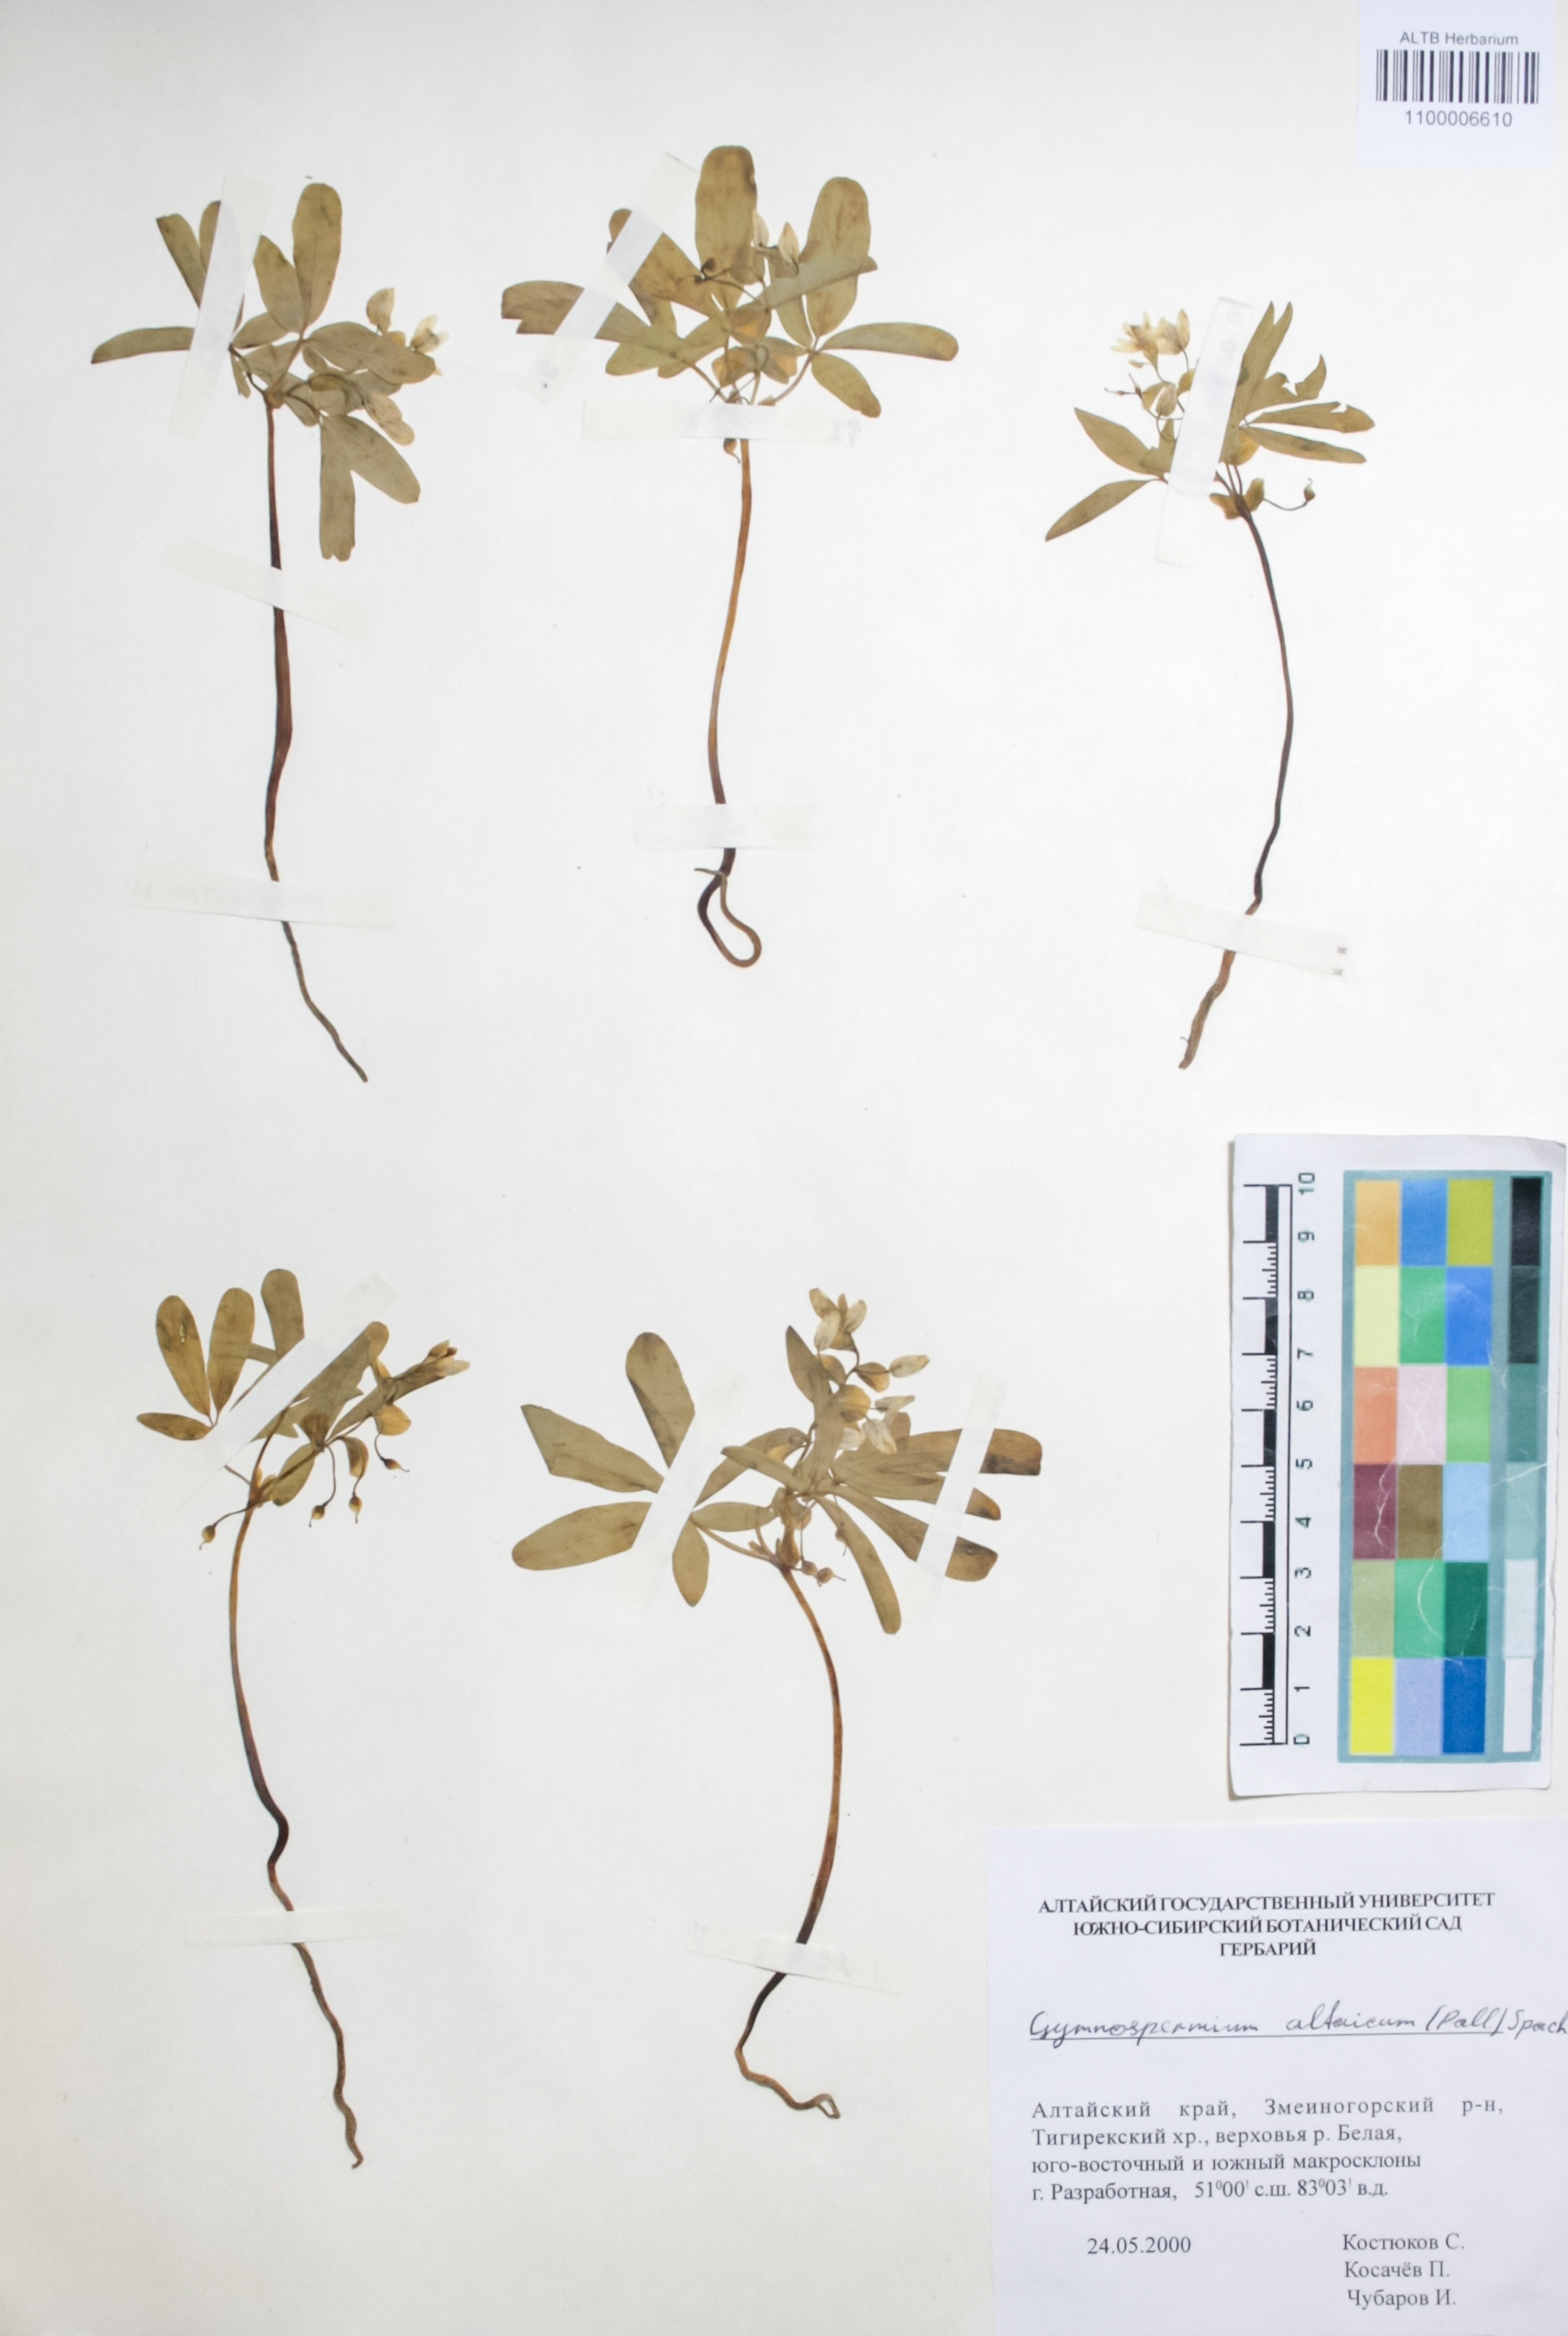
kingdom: Plantae
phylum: Tracheophyta
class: Magnoliopsida
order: Ranunculales
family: Berberidaceae
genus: Gymnospermium
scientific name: Gymnospermium altaicum
